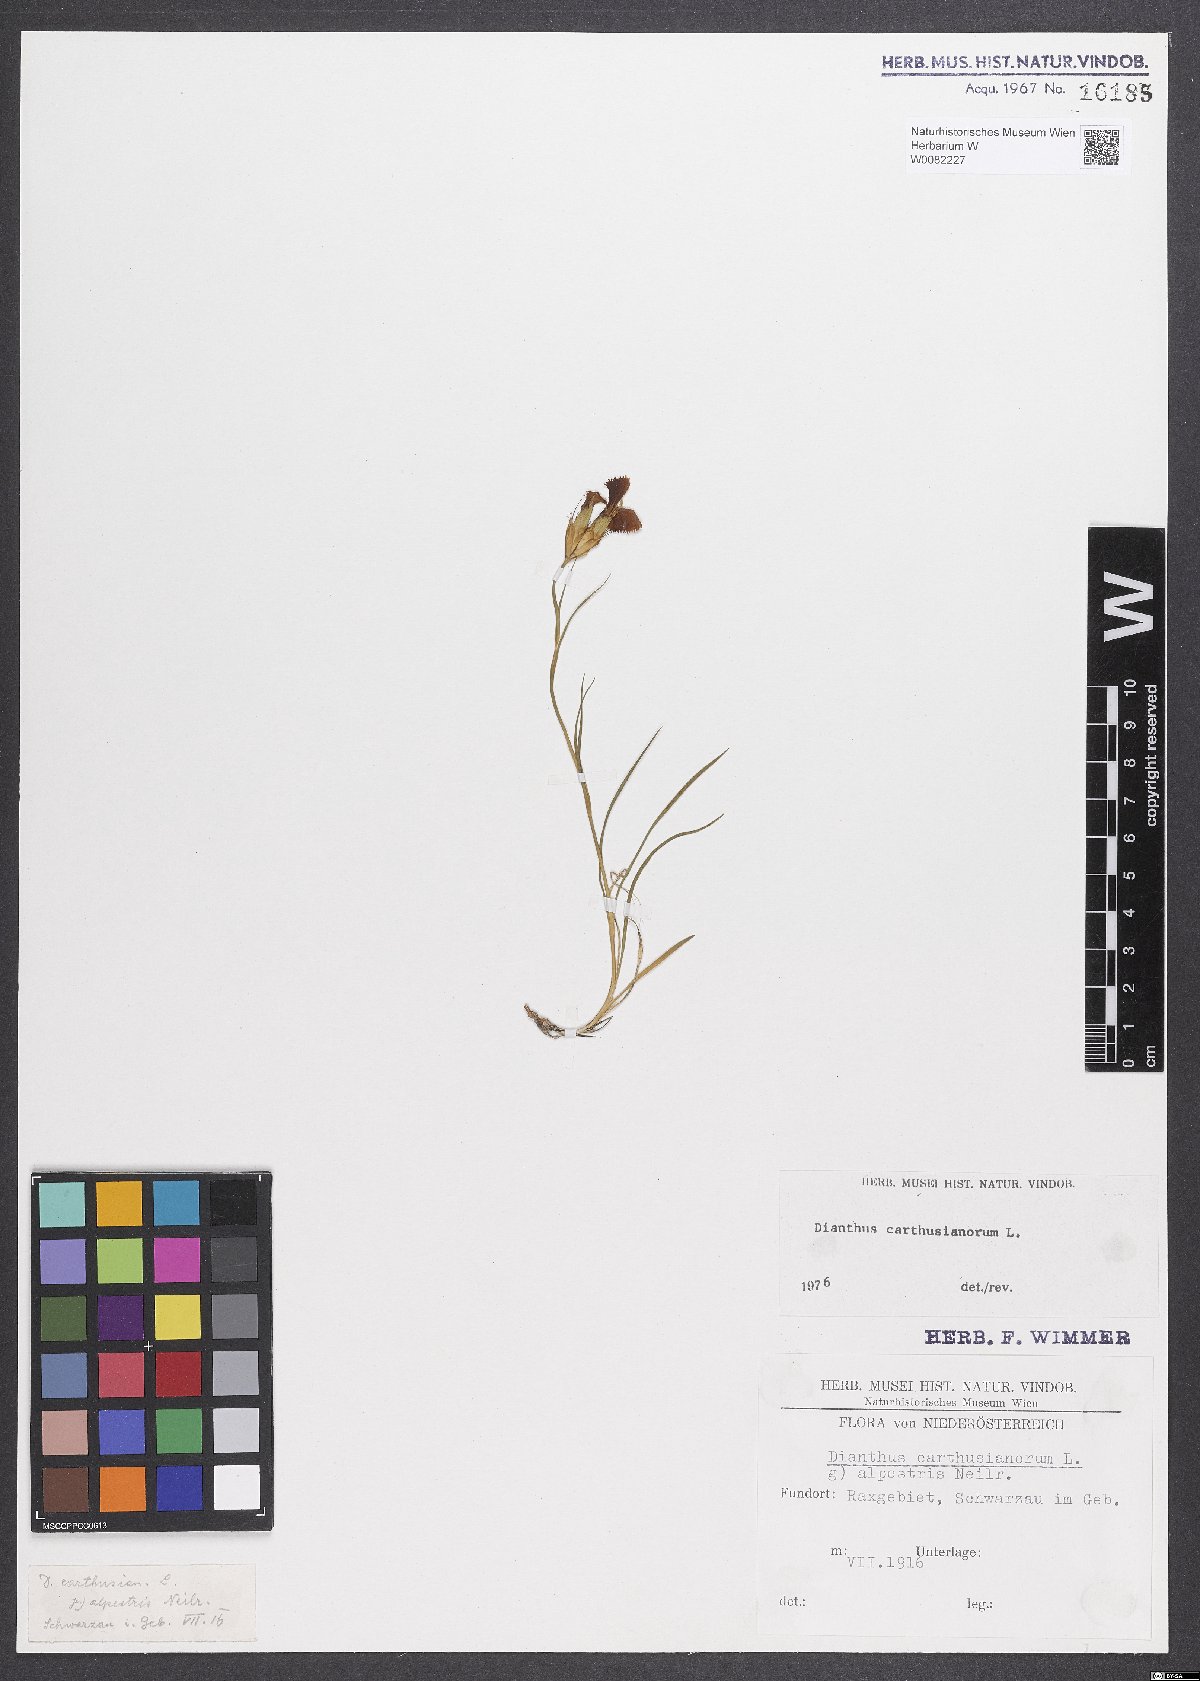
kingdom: Plantae
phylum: Tracheophyta
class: Magnoliopsida
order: Caryophyllales
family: Caryophyllaceae
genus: Dianthus
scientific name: Dianthus carthusianorum
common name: Carthusian pink
